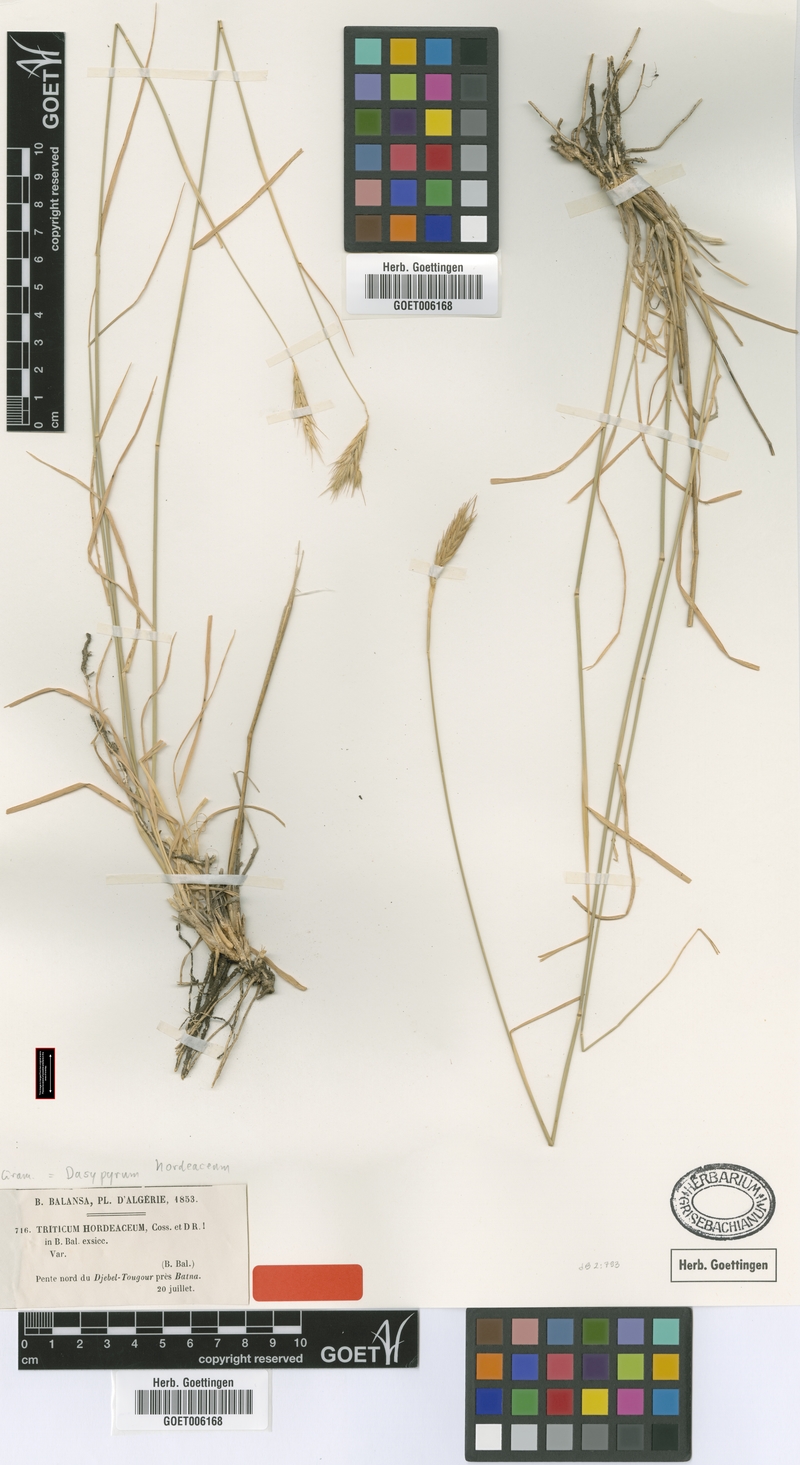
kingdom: Plantae
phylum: Tracheophyta
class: Liliopsida
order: Poales
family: Poaceae
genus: Dasypyrum
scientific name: Dasypyrum hordeaceum
